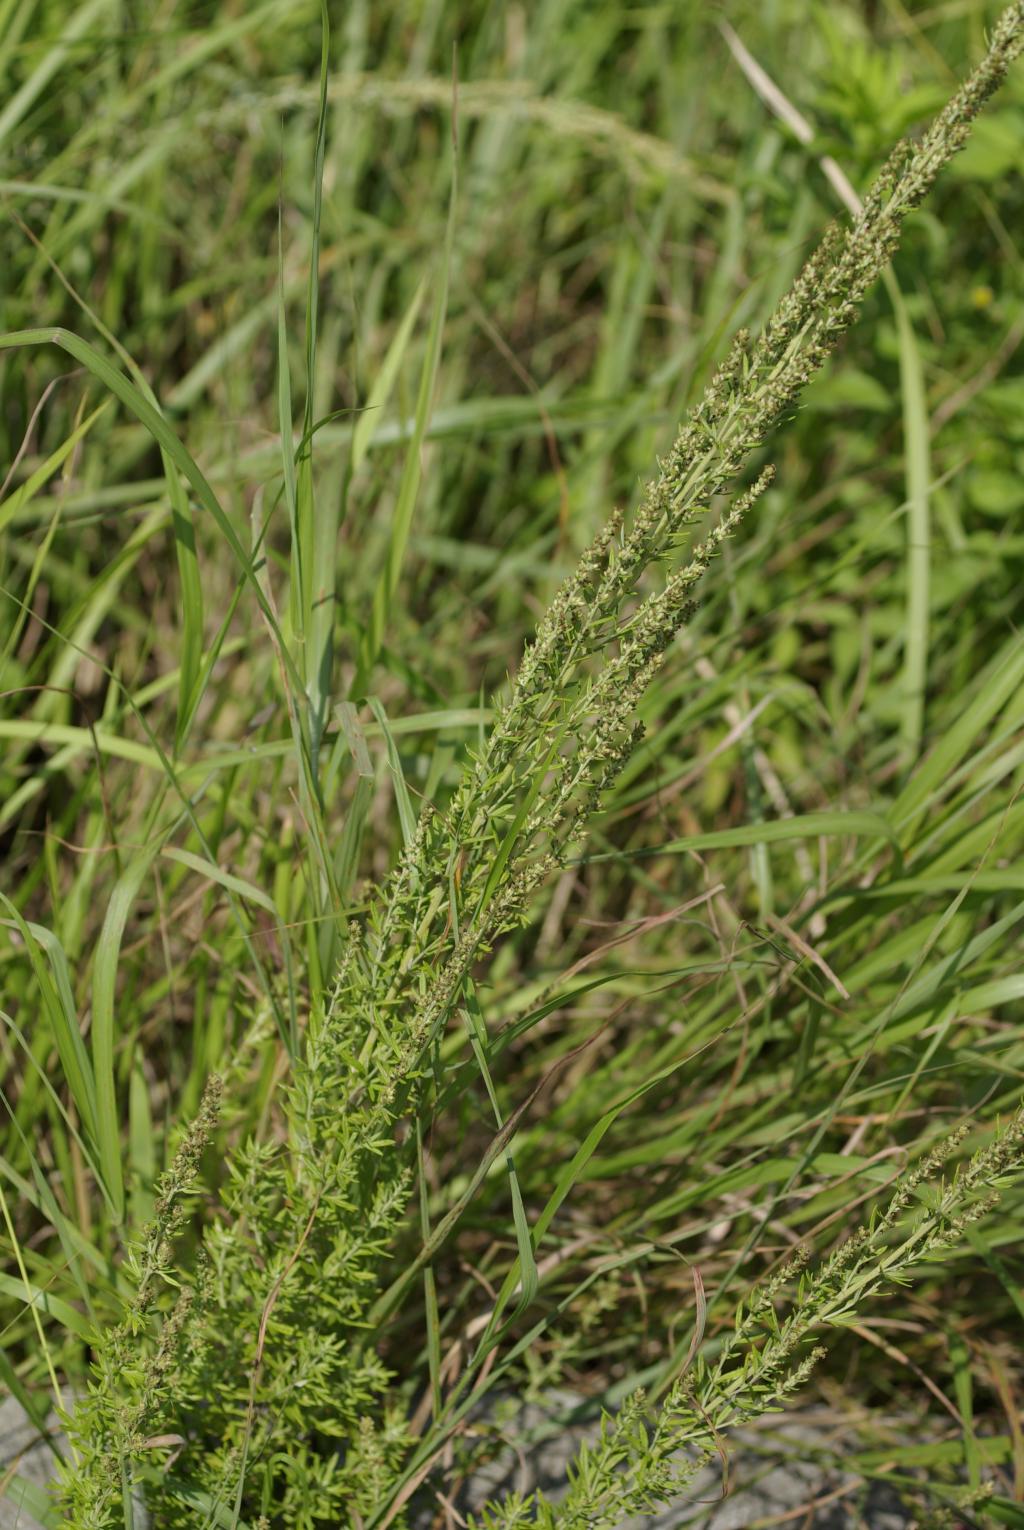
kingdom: Plantae
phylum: Tracheophyta
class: Magnoliopsida
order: Asterales
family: Asteraceae
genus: Artemisia
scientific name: Artemisia lancea
